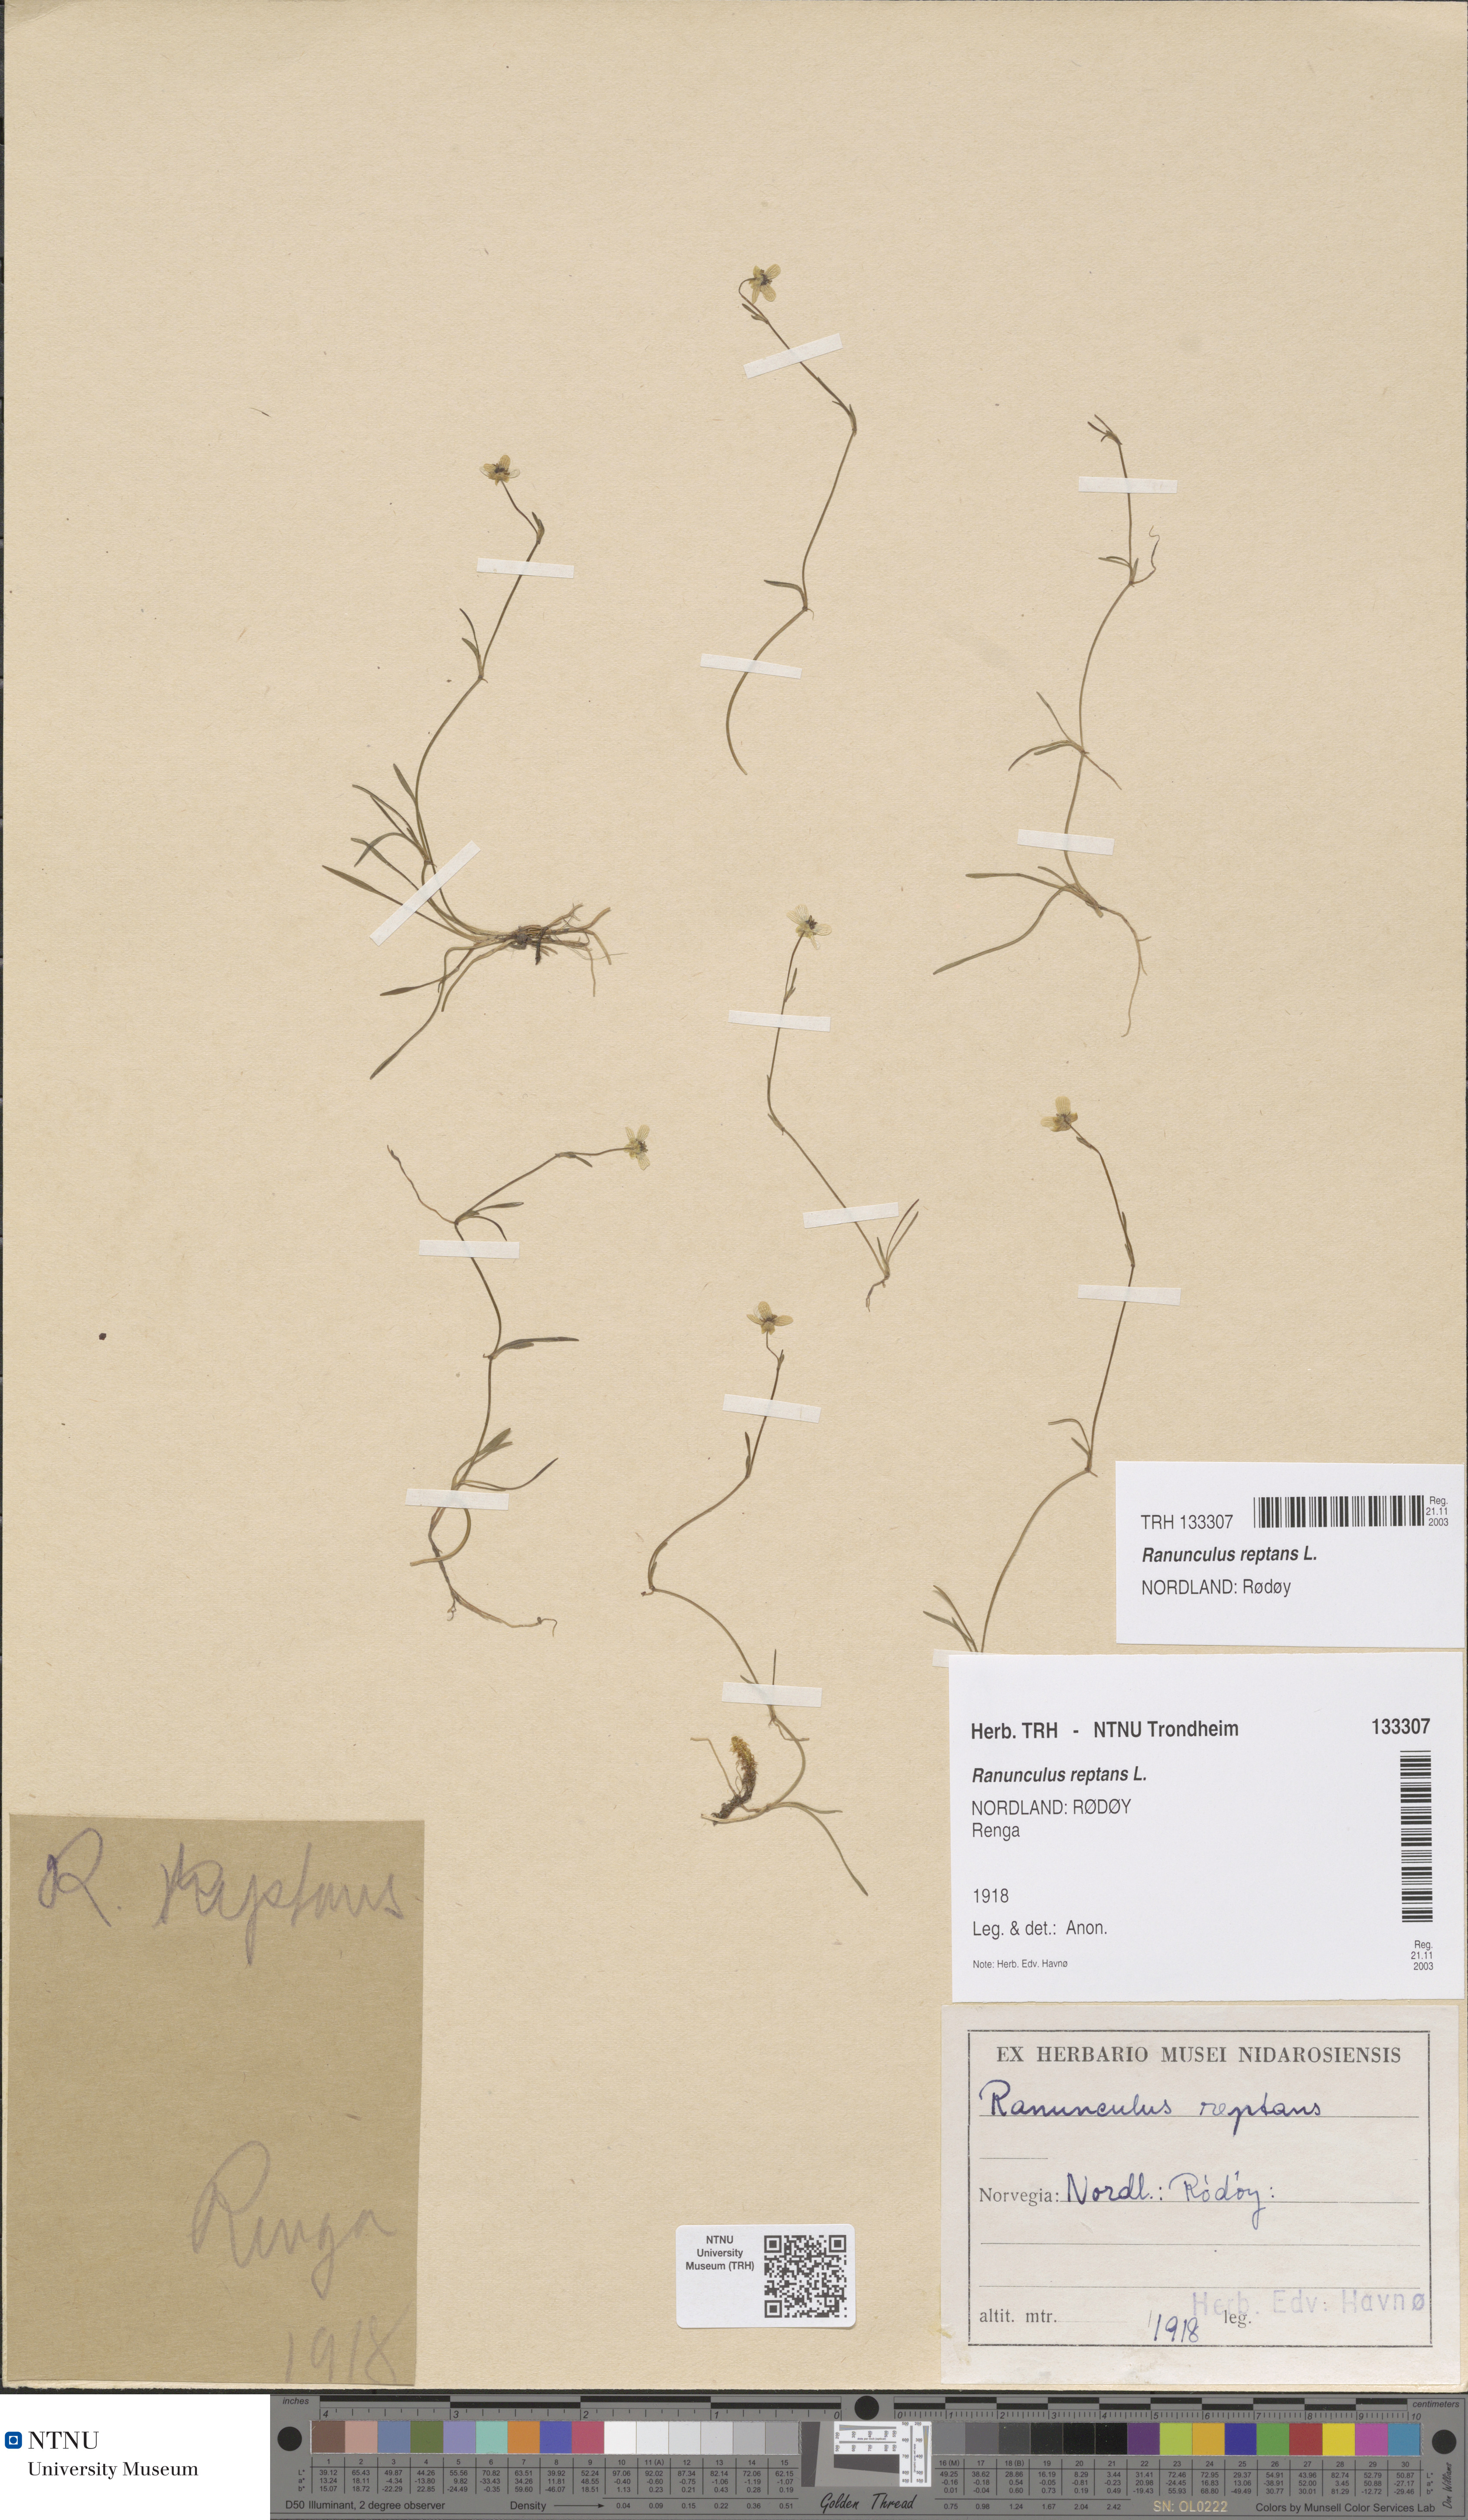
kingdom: Plantae
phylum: Tracheophyta
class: Magnoliopsida
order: Ranunculales
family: Ranunculaceae
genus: Ranunculus
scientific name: Ranunculus reptans
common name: Creeping spearwort
